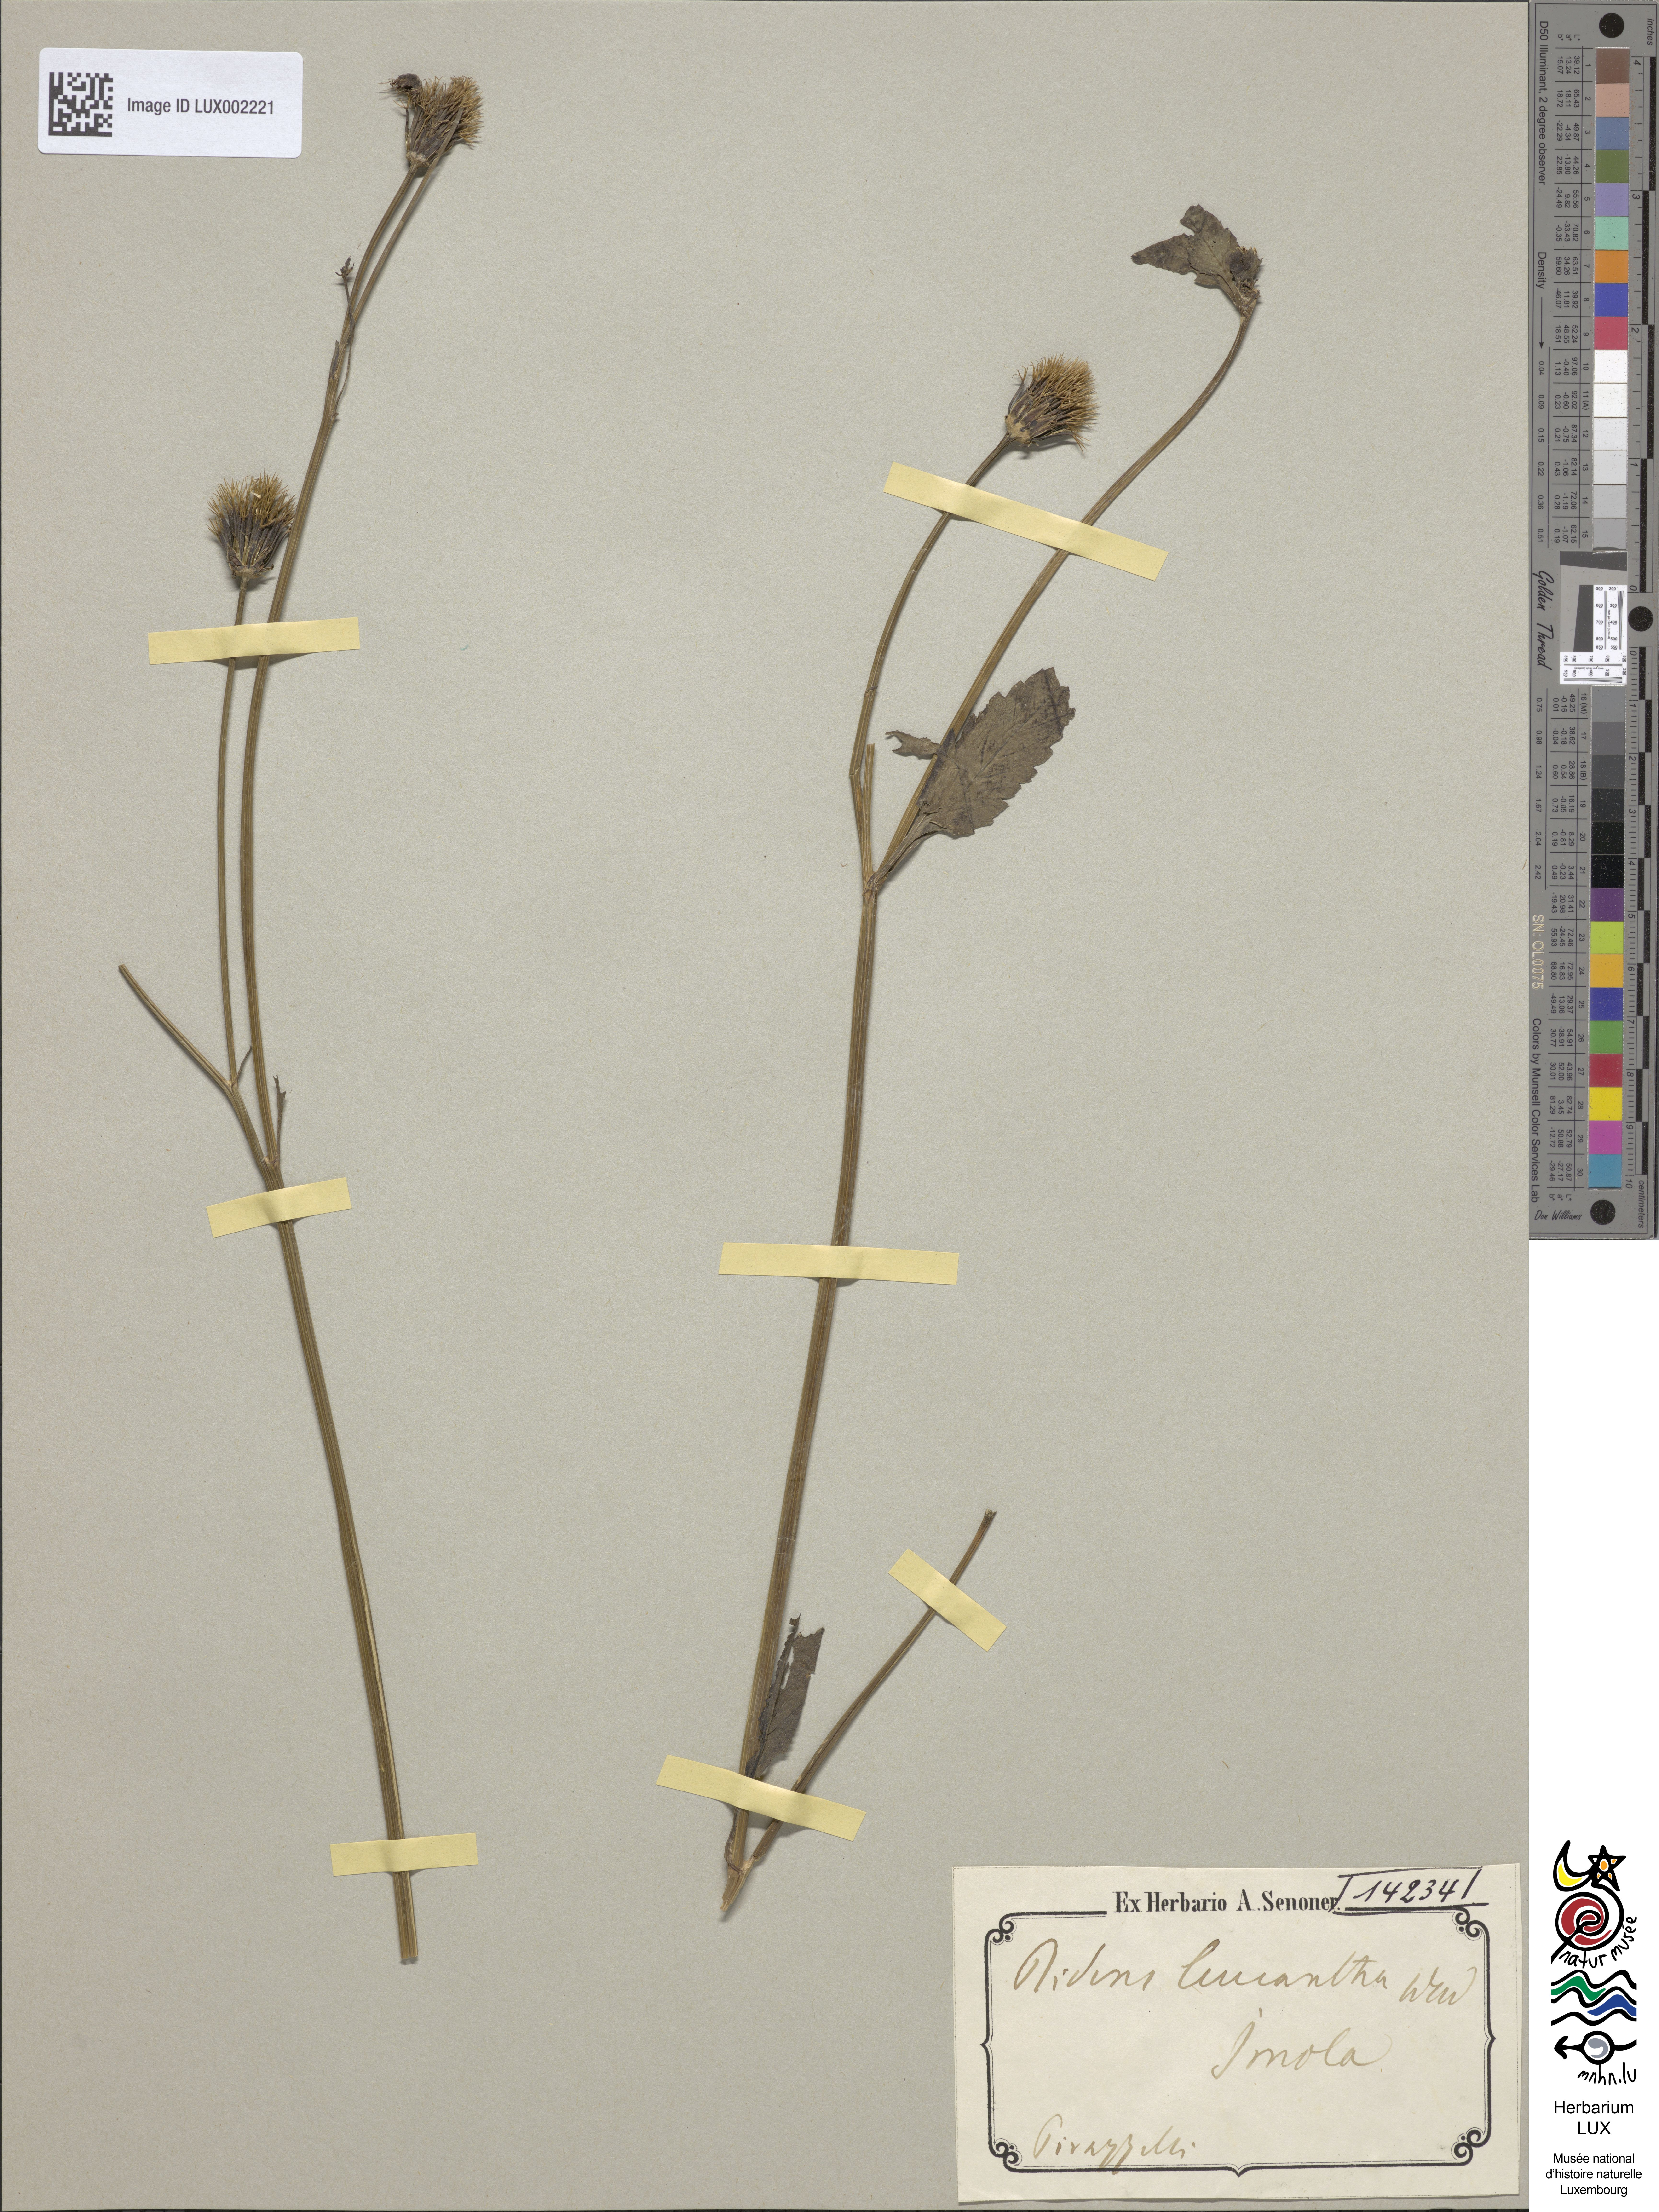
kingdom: Plantae
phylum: Tracheophyta
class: Magnoliopsida
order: Asterales
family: Asteraceae
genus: Bidens
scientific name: Bidens pilosa
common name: Black-jack
